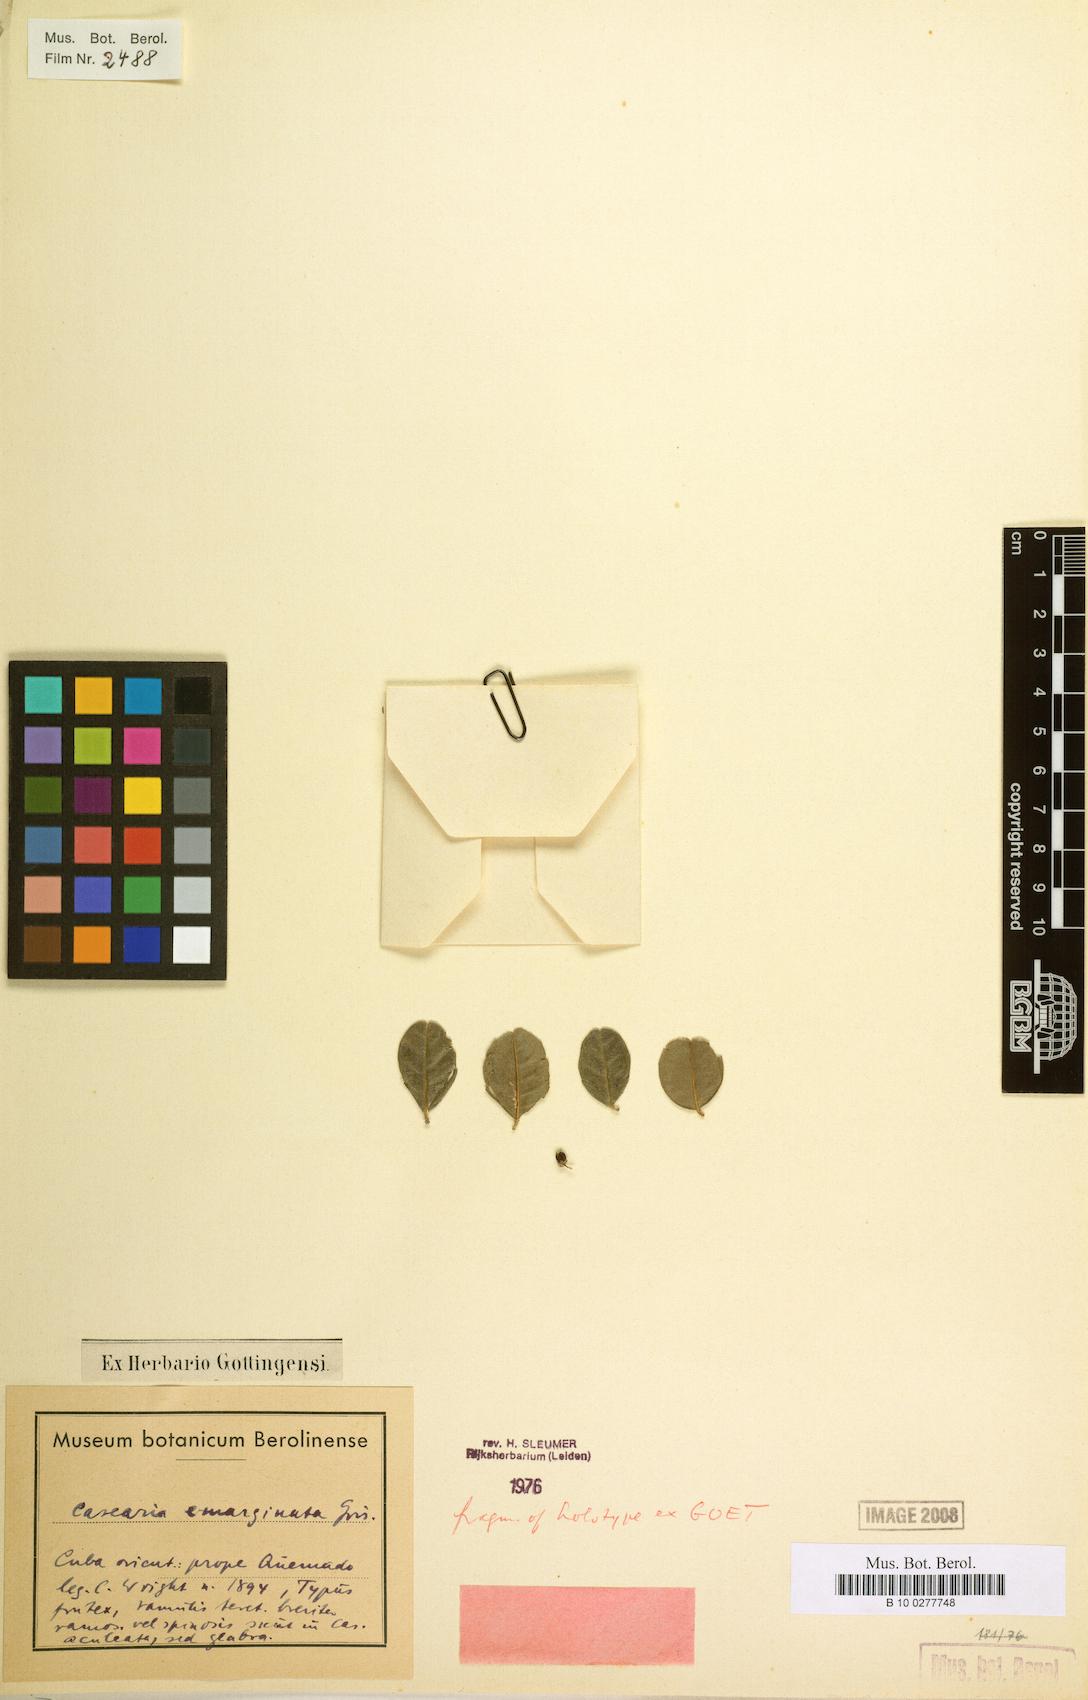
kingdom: Plantae
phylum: Tracheophyta
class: Magnoliopsida
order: Malpighiales
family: Salicaceae
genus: Casearia
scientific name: Casearia emarginata
